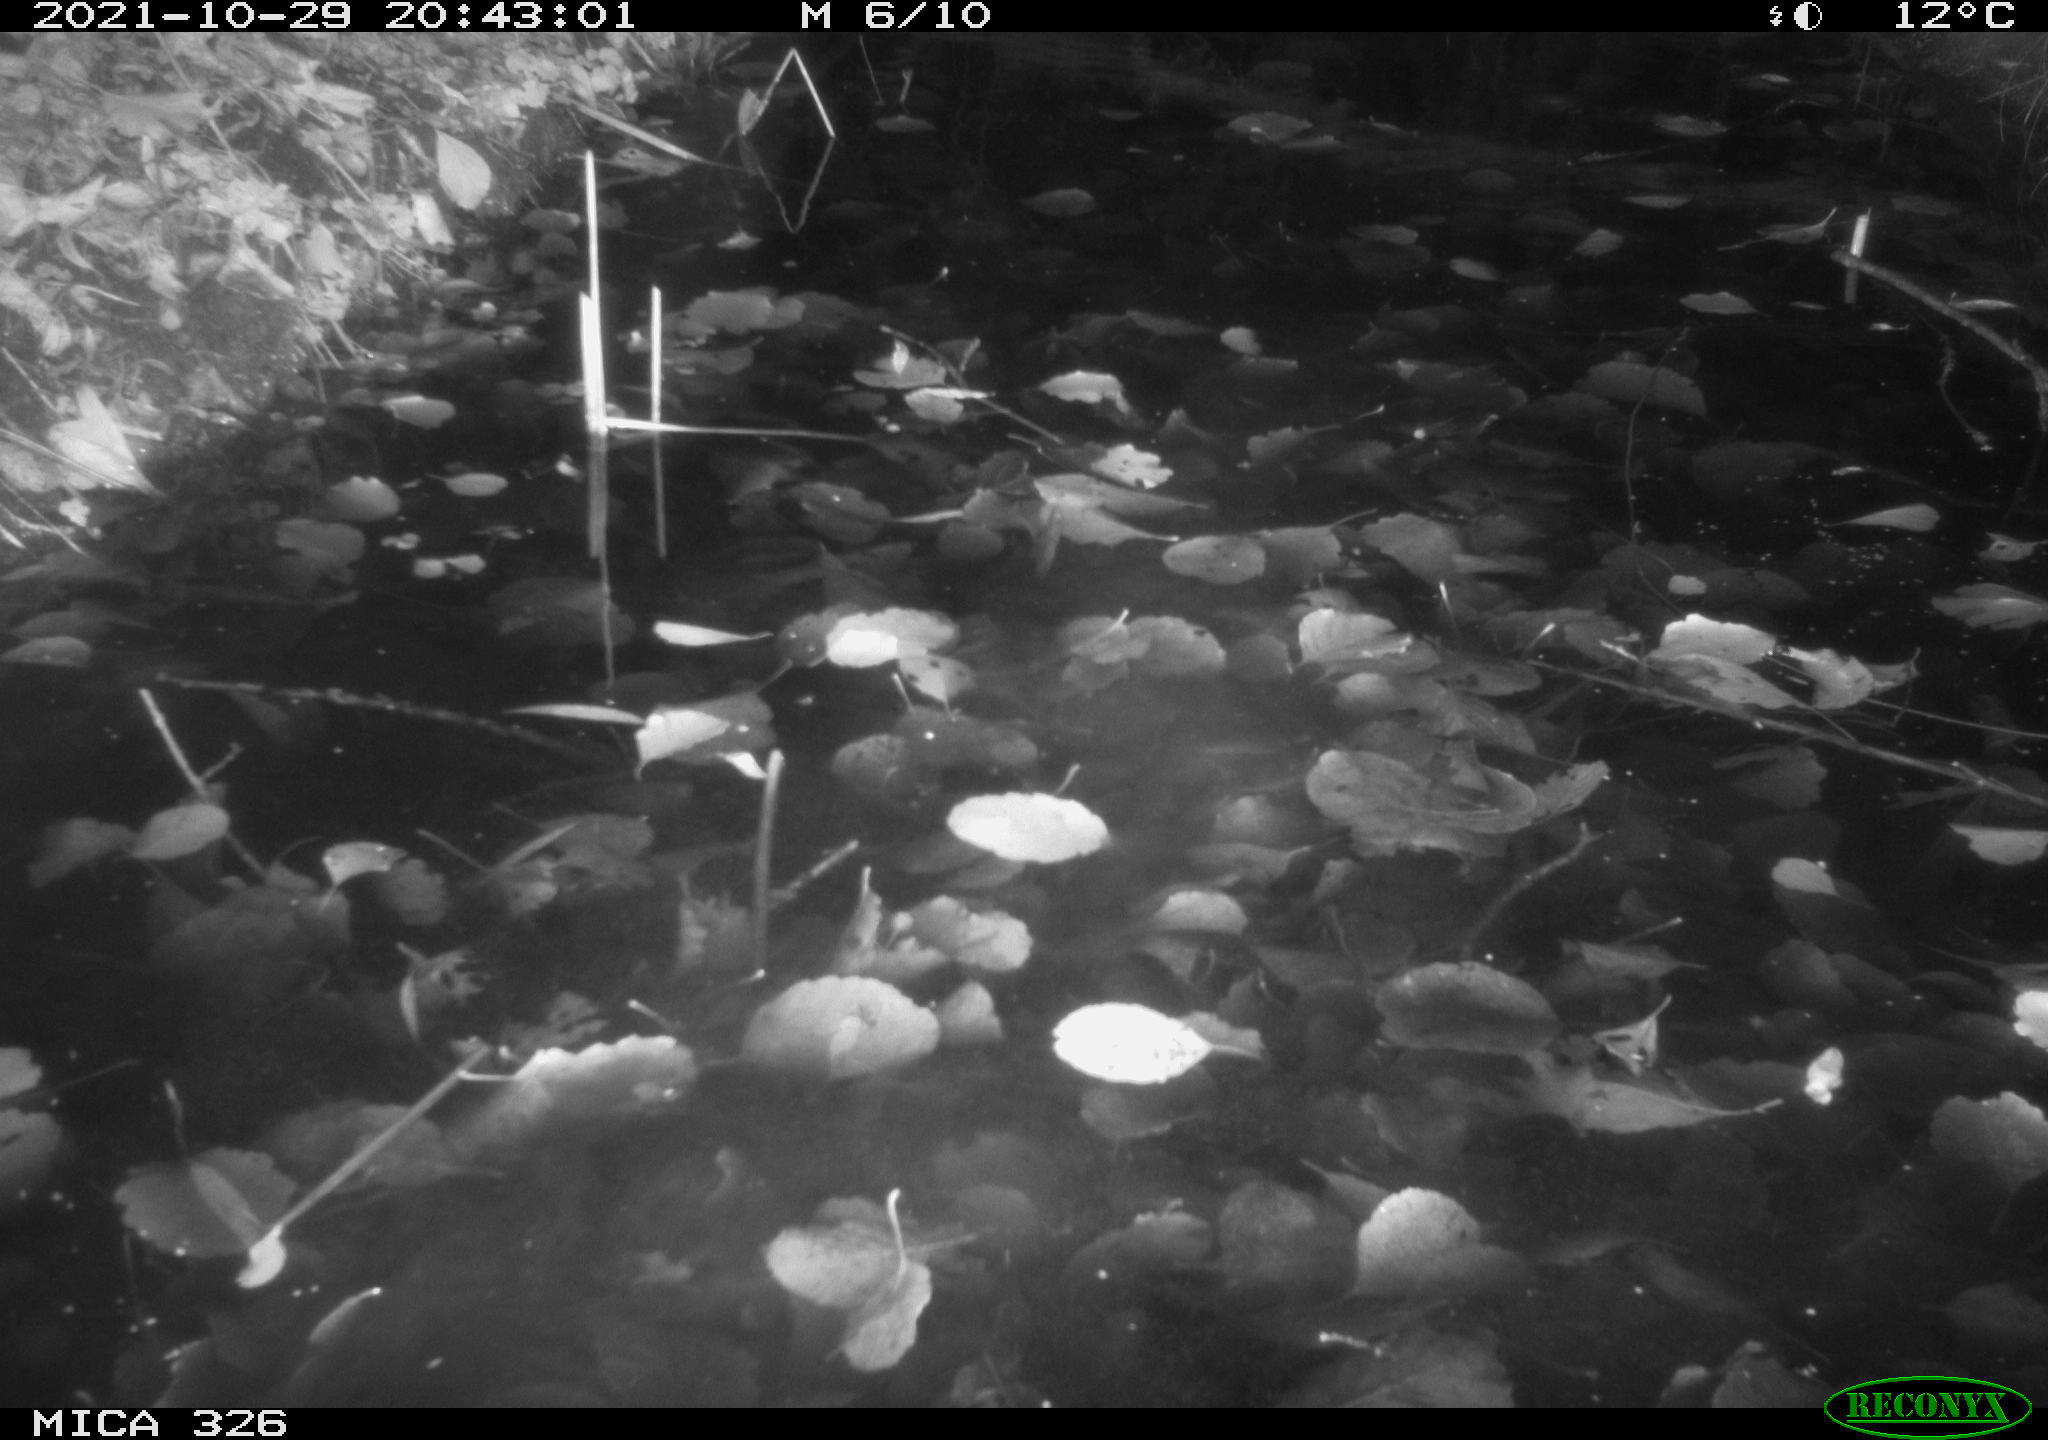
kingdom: Animalia
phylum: Chordata
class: Mammalia
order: Rodentia
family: Myocastoridae
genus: Myocastor
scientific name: Myocastor coypus
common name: Coypu
